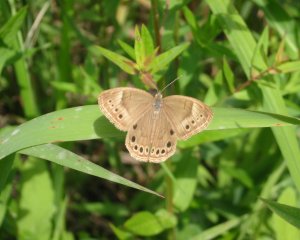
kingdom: Animalia
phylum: Arthropoda
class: Insecta
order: Lepidoptera
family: Nymphalidae
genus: Lethe
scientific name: Lethe eurydice
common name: Eyed Brown
